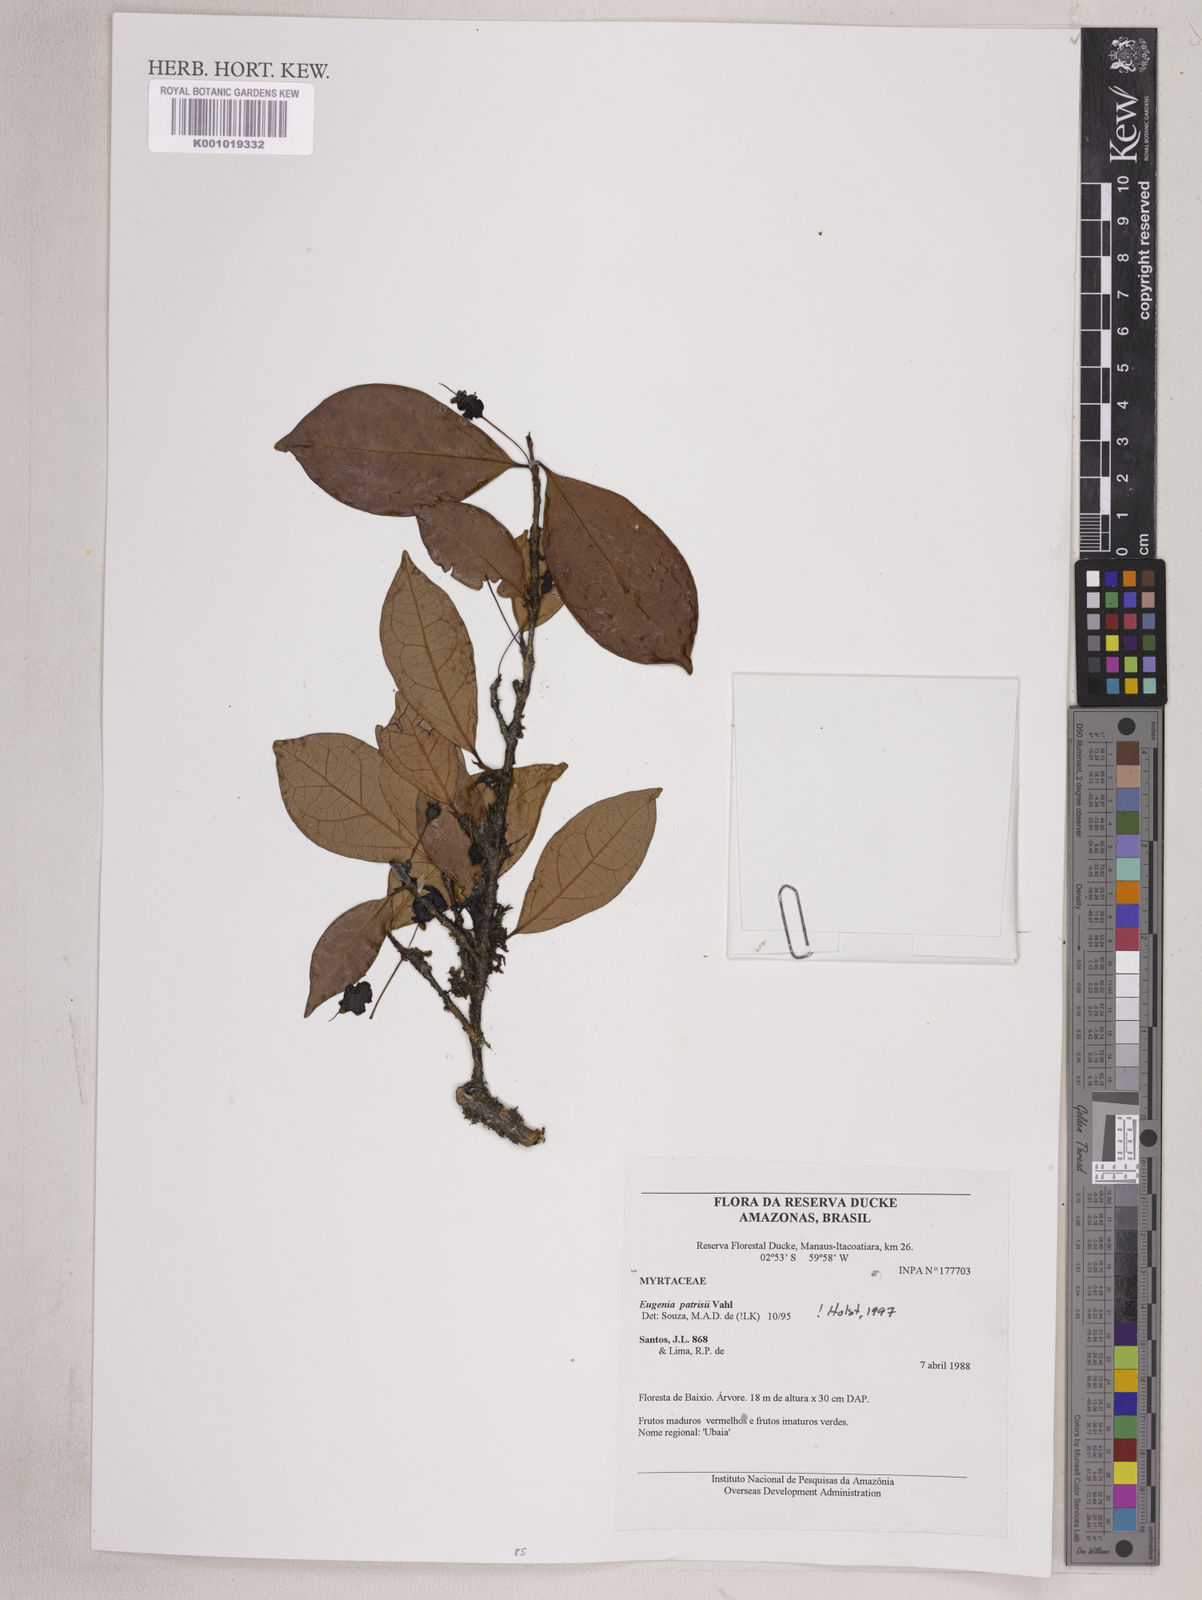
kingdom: Plantae
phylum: Tracheophyta
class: Magnoliopsida
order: Myrtales
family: Myrtaceae
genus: Eugenia
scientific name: Eugenia patrisii
